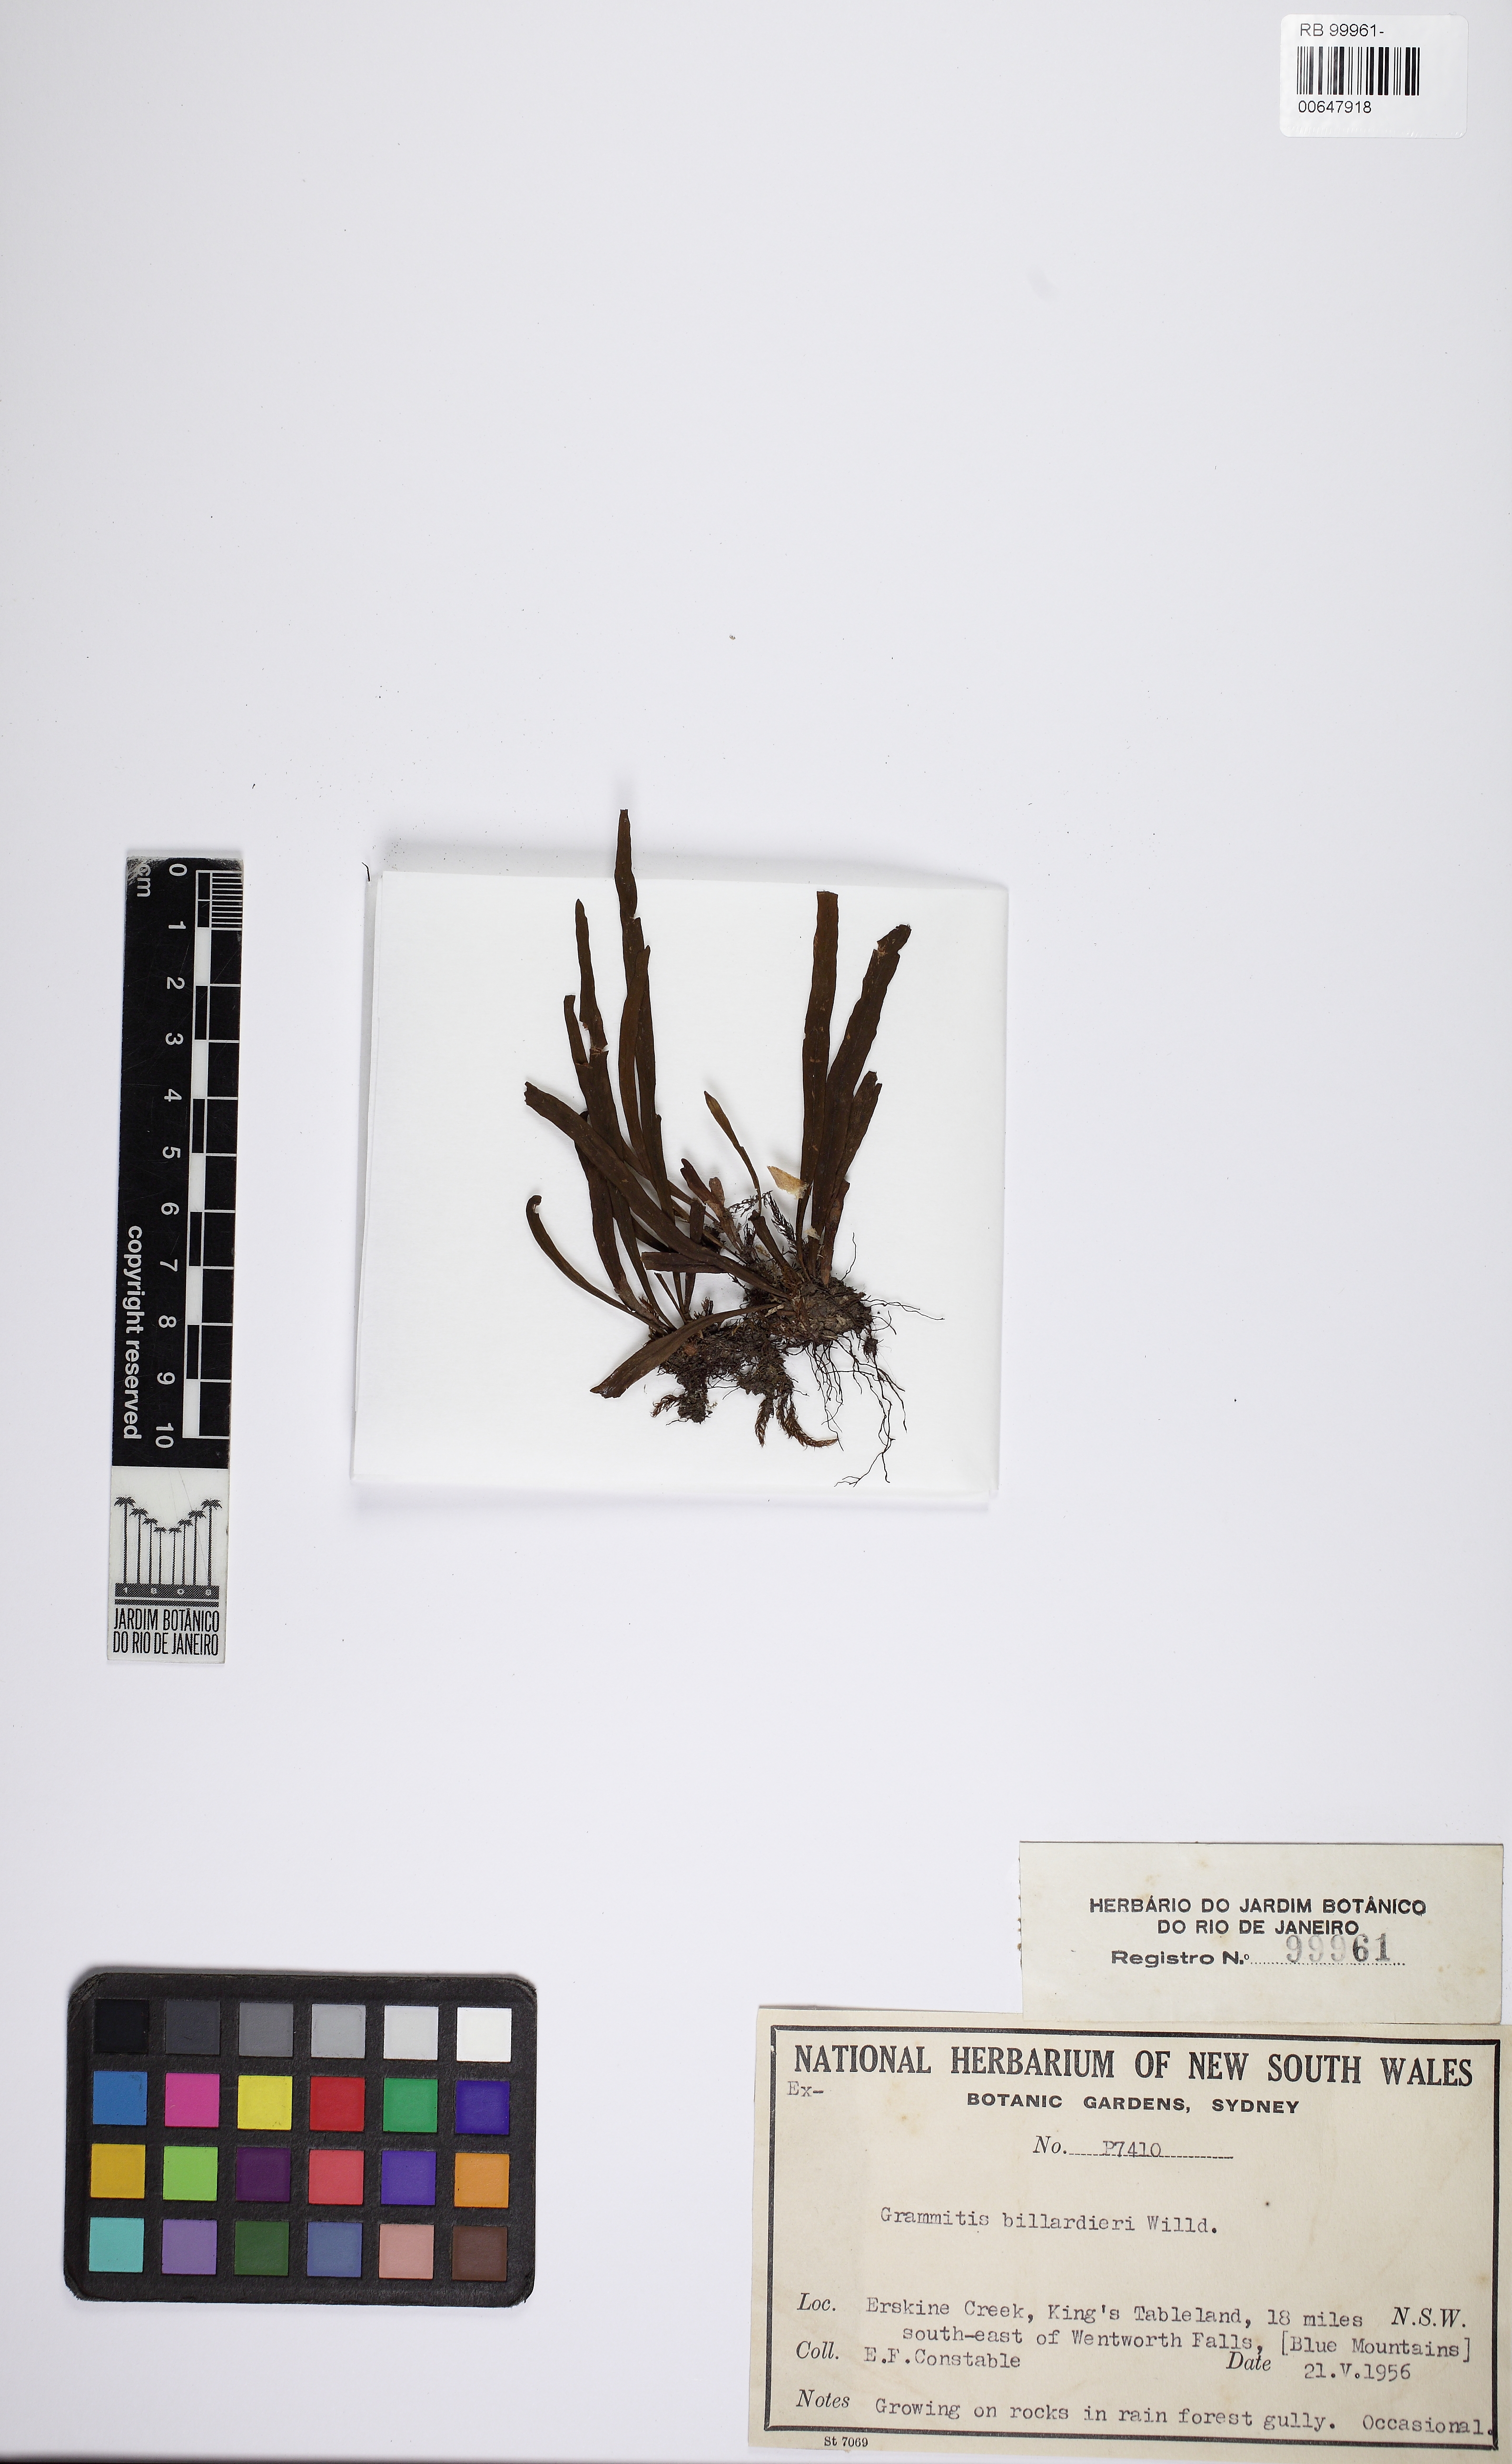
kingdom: Plantae
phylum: Tracheophyta
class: Polypodiopsida
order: Polypodiales
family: Polypodiaceae
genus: Notogrammitis
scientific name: Notogrammitis billardierei
